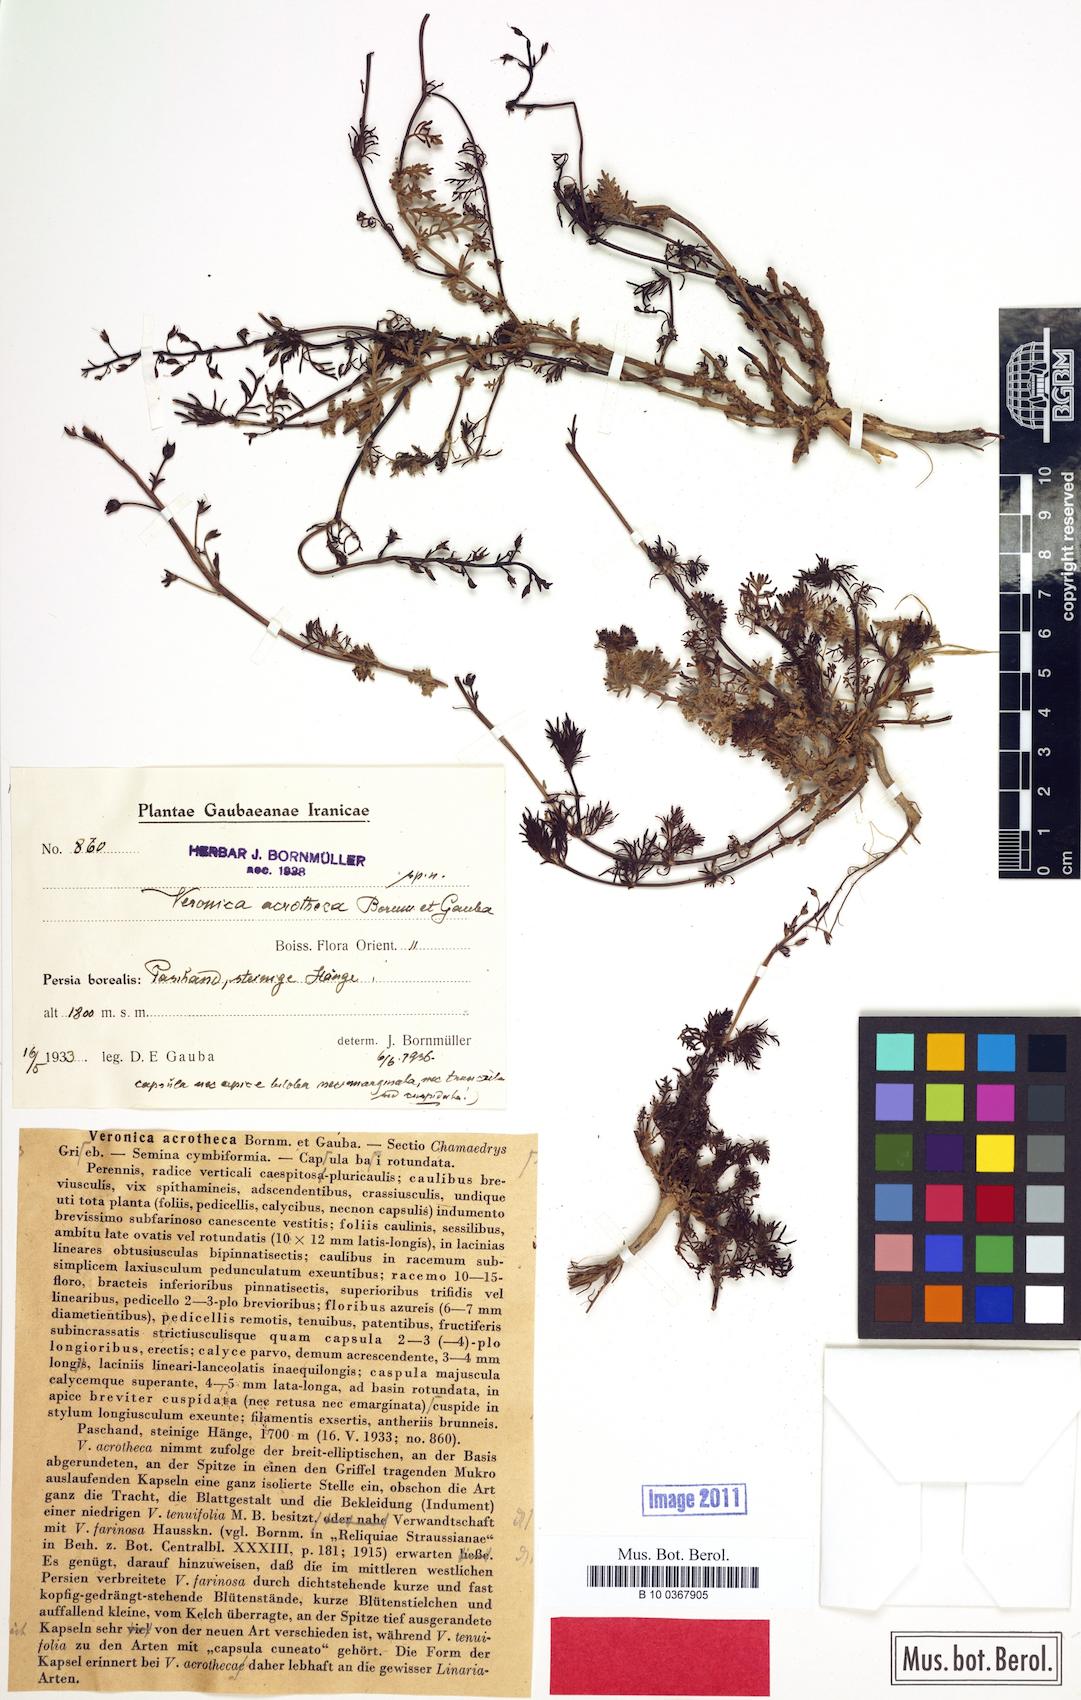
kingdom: Plantae
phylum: Tracheophyta
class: Magnoliopsida
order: Lamiales
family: Plantaginaceae
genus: Veronica
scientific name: Veronica acrotheca
